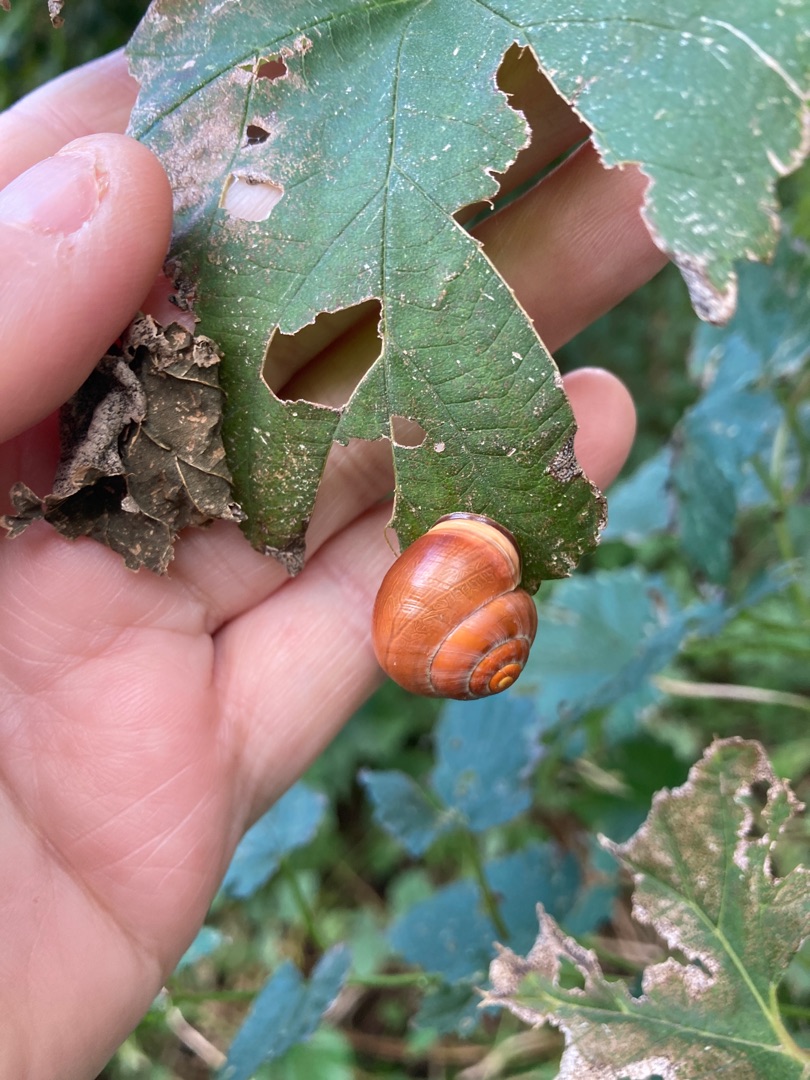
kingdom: Animalia
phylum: Mollusca
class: Gastropoda
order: Stylommatophora
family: Helicidae
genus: Cepaea
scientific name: Cepaea nemoralis
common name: Lundsnegl
